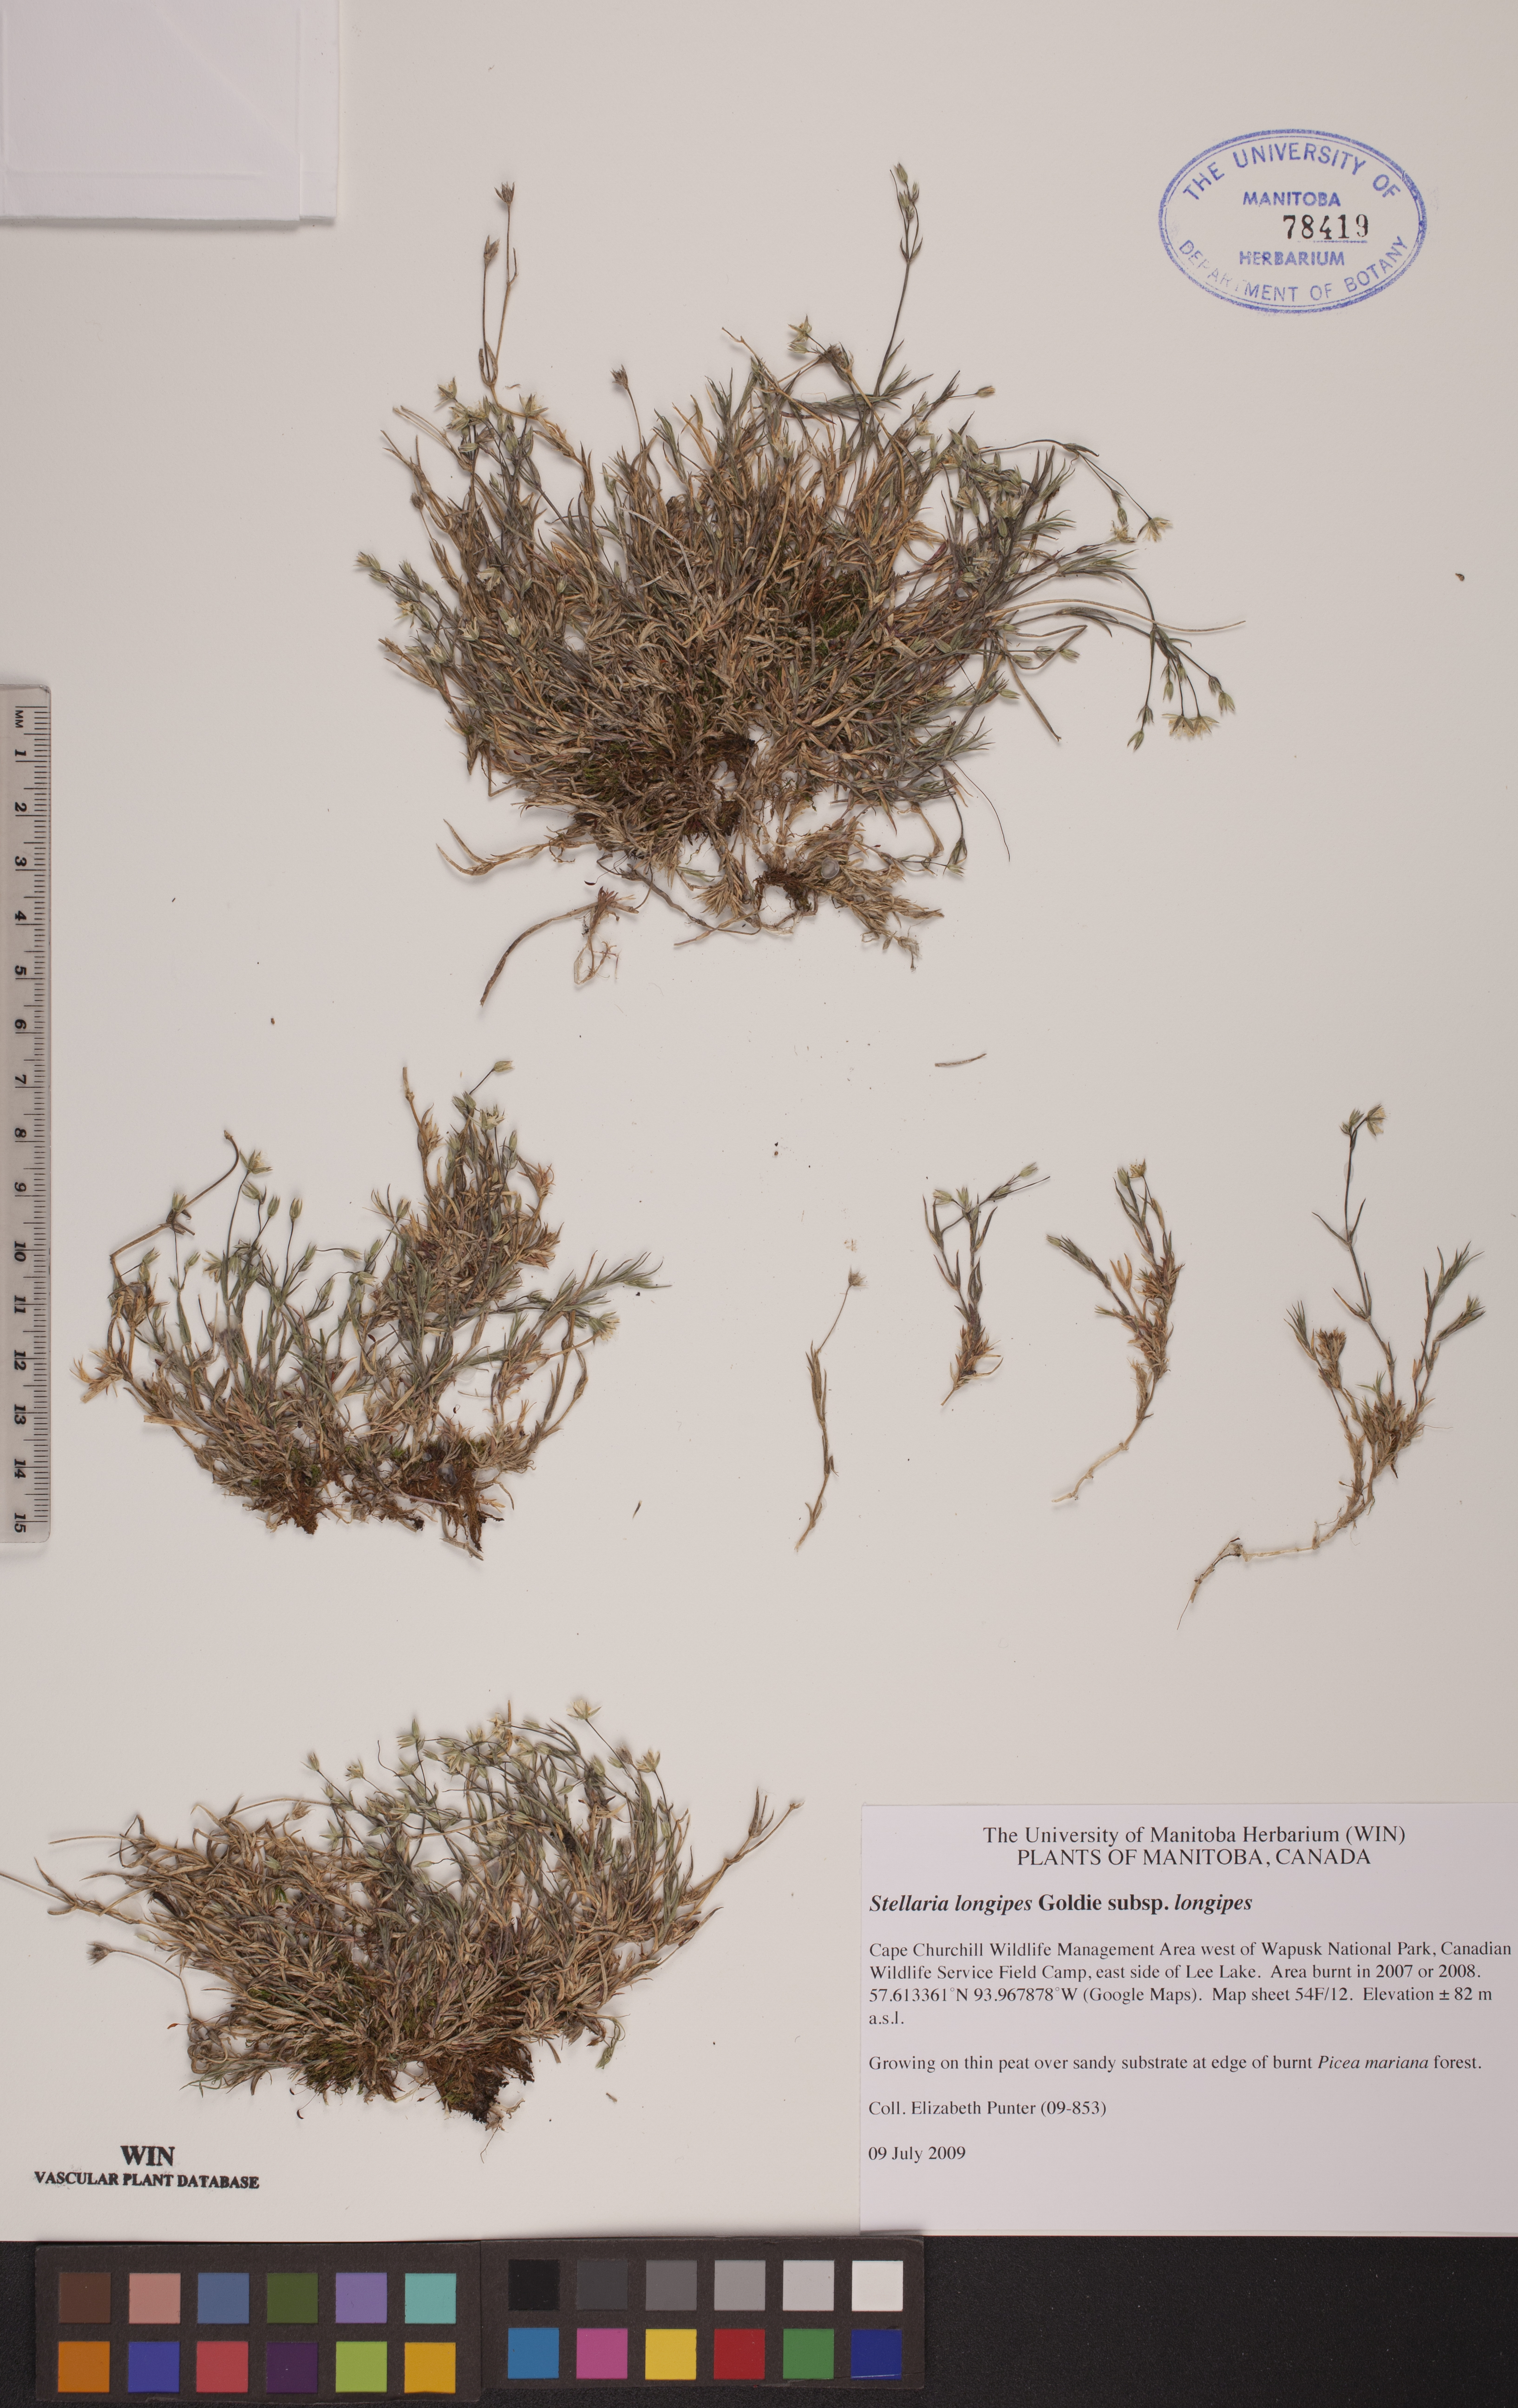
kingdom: Plantae
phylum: Tracheophyta
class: Magnoliopsida
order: Caryophyllales
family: Caryophyllaceae
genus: Stellaria
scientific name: Stellaria longipes
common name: Goldie's starwort
